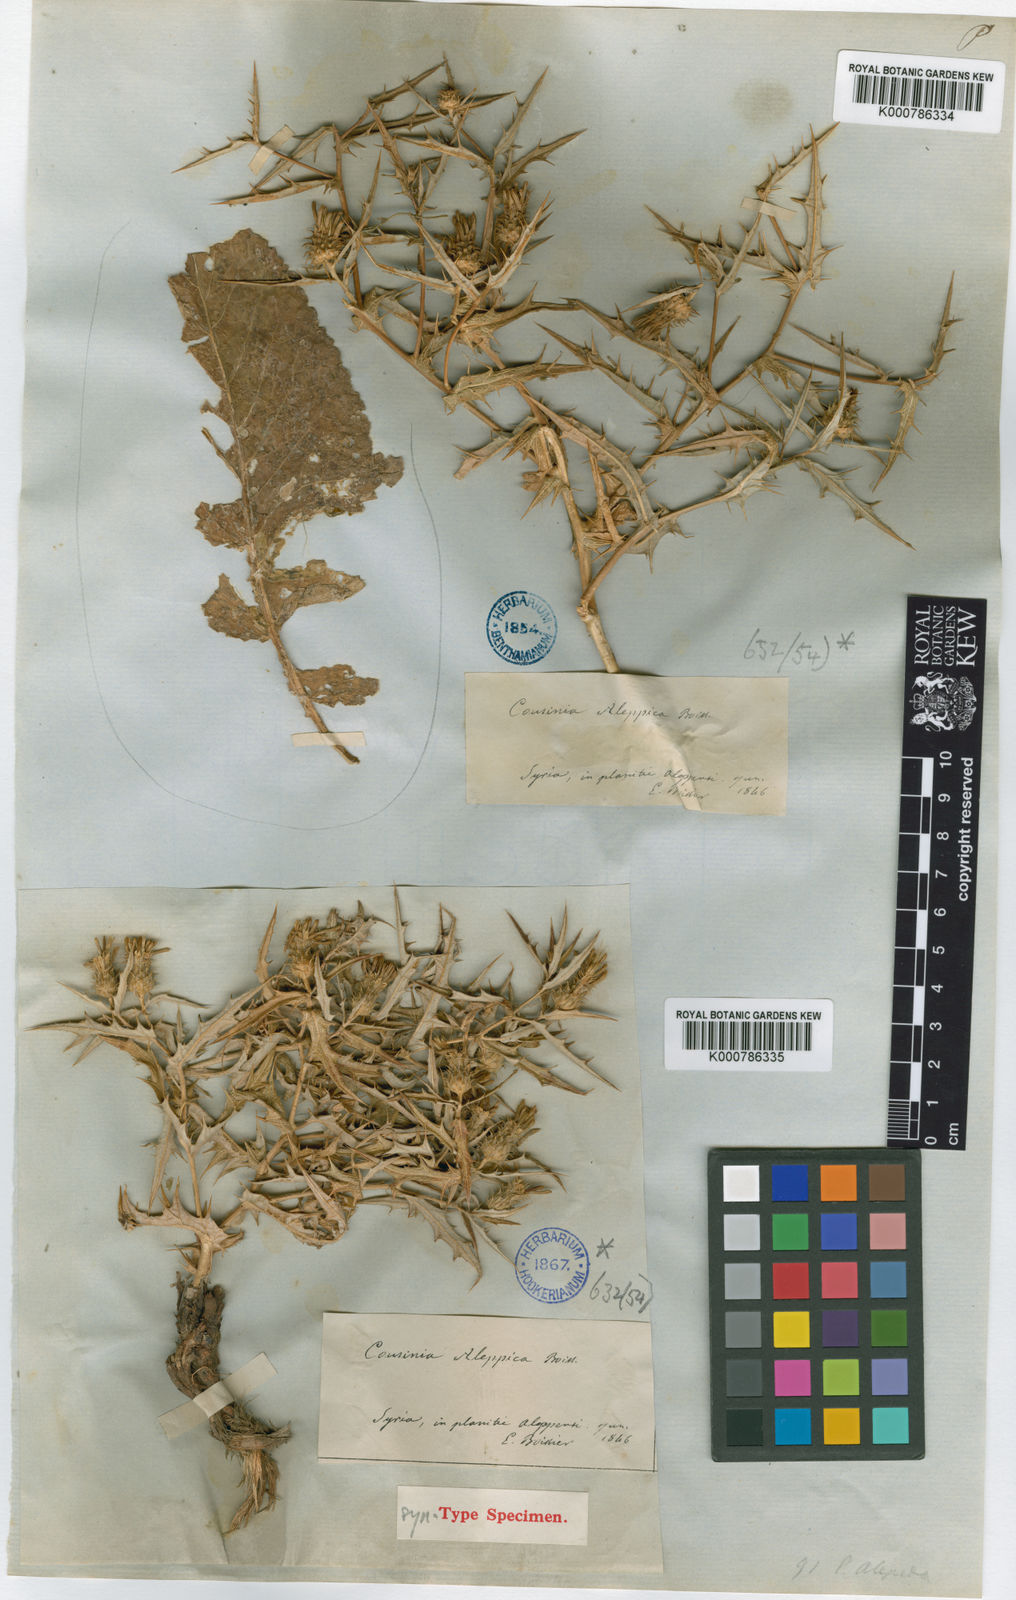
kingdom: Plantae
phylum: Tracheophyta
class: Magnoliopsida
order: Asterales
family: Asteraceae
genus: Cousinia
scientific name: Cousinia aleppica
